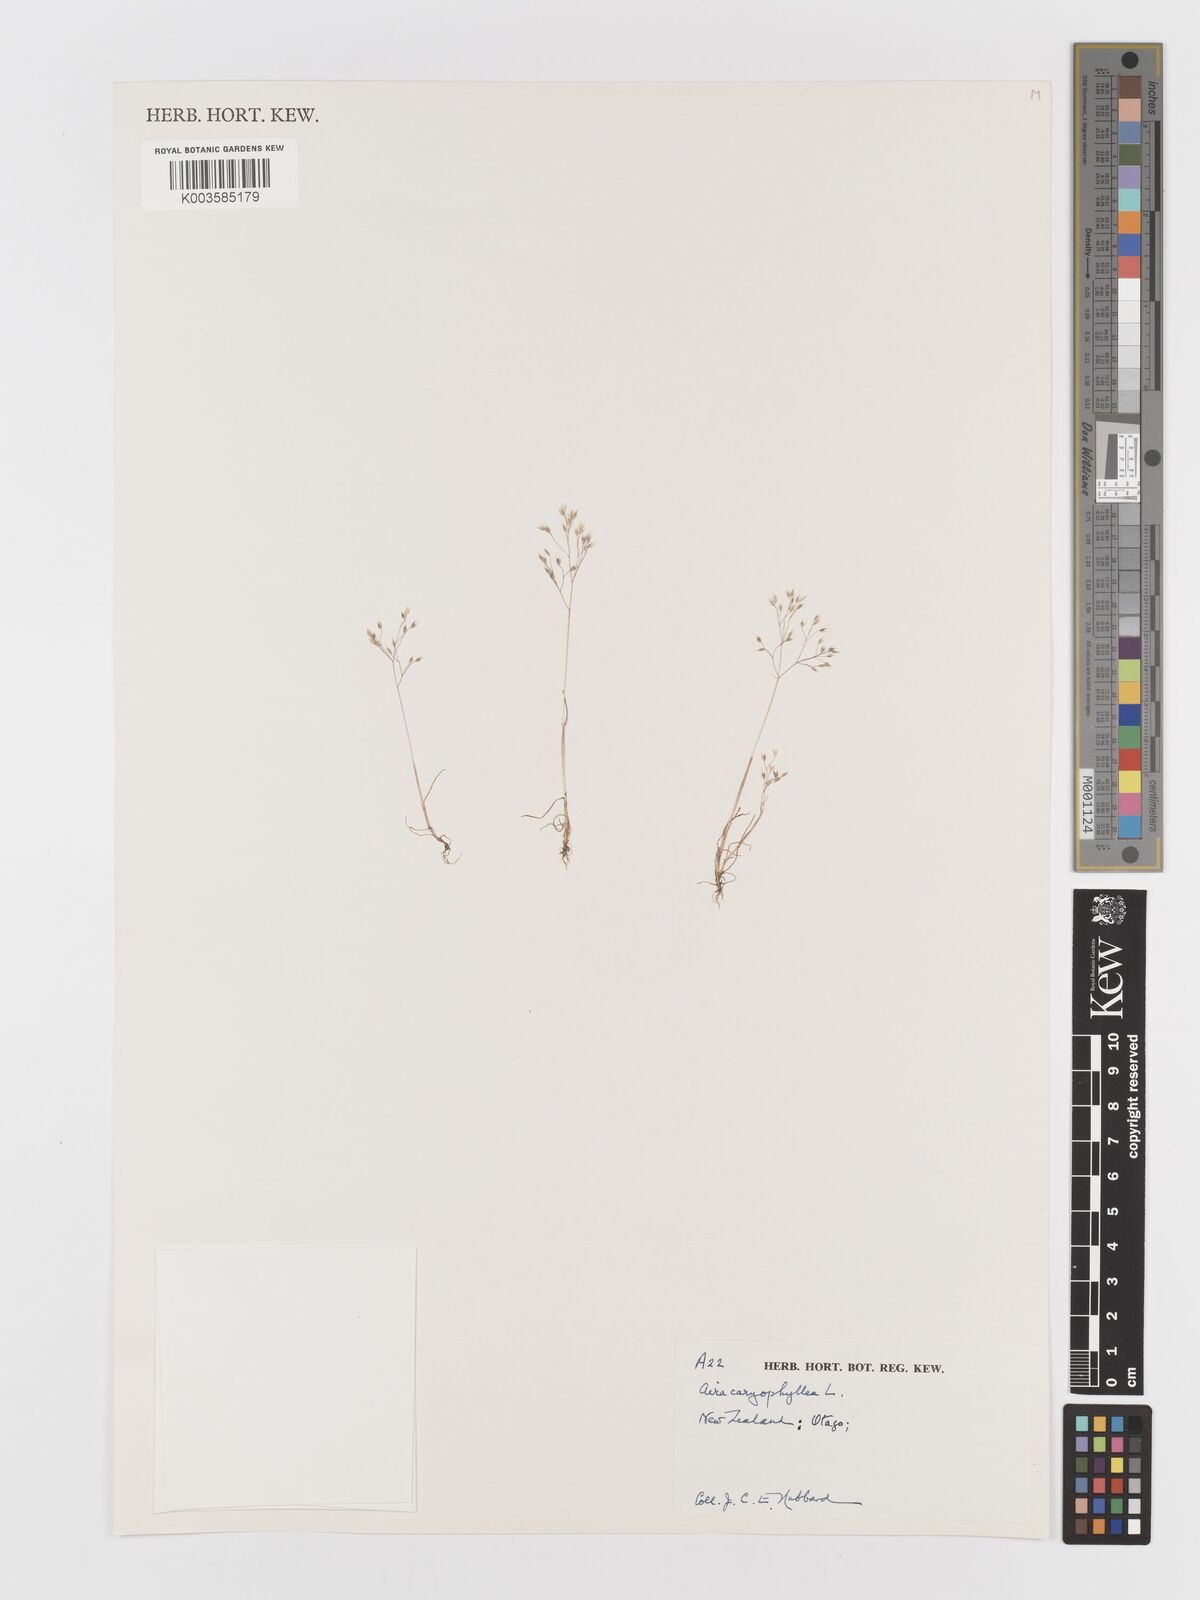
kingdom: Plantae
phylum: Tracheophyta
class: Liliopsida
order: Poales
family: Poaceae
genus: Aira
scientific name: Aira caryophyllea
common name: Silver hairgrass
